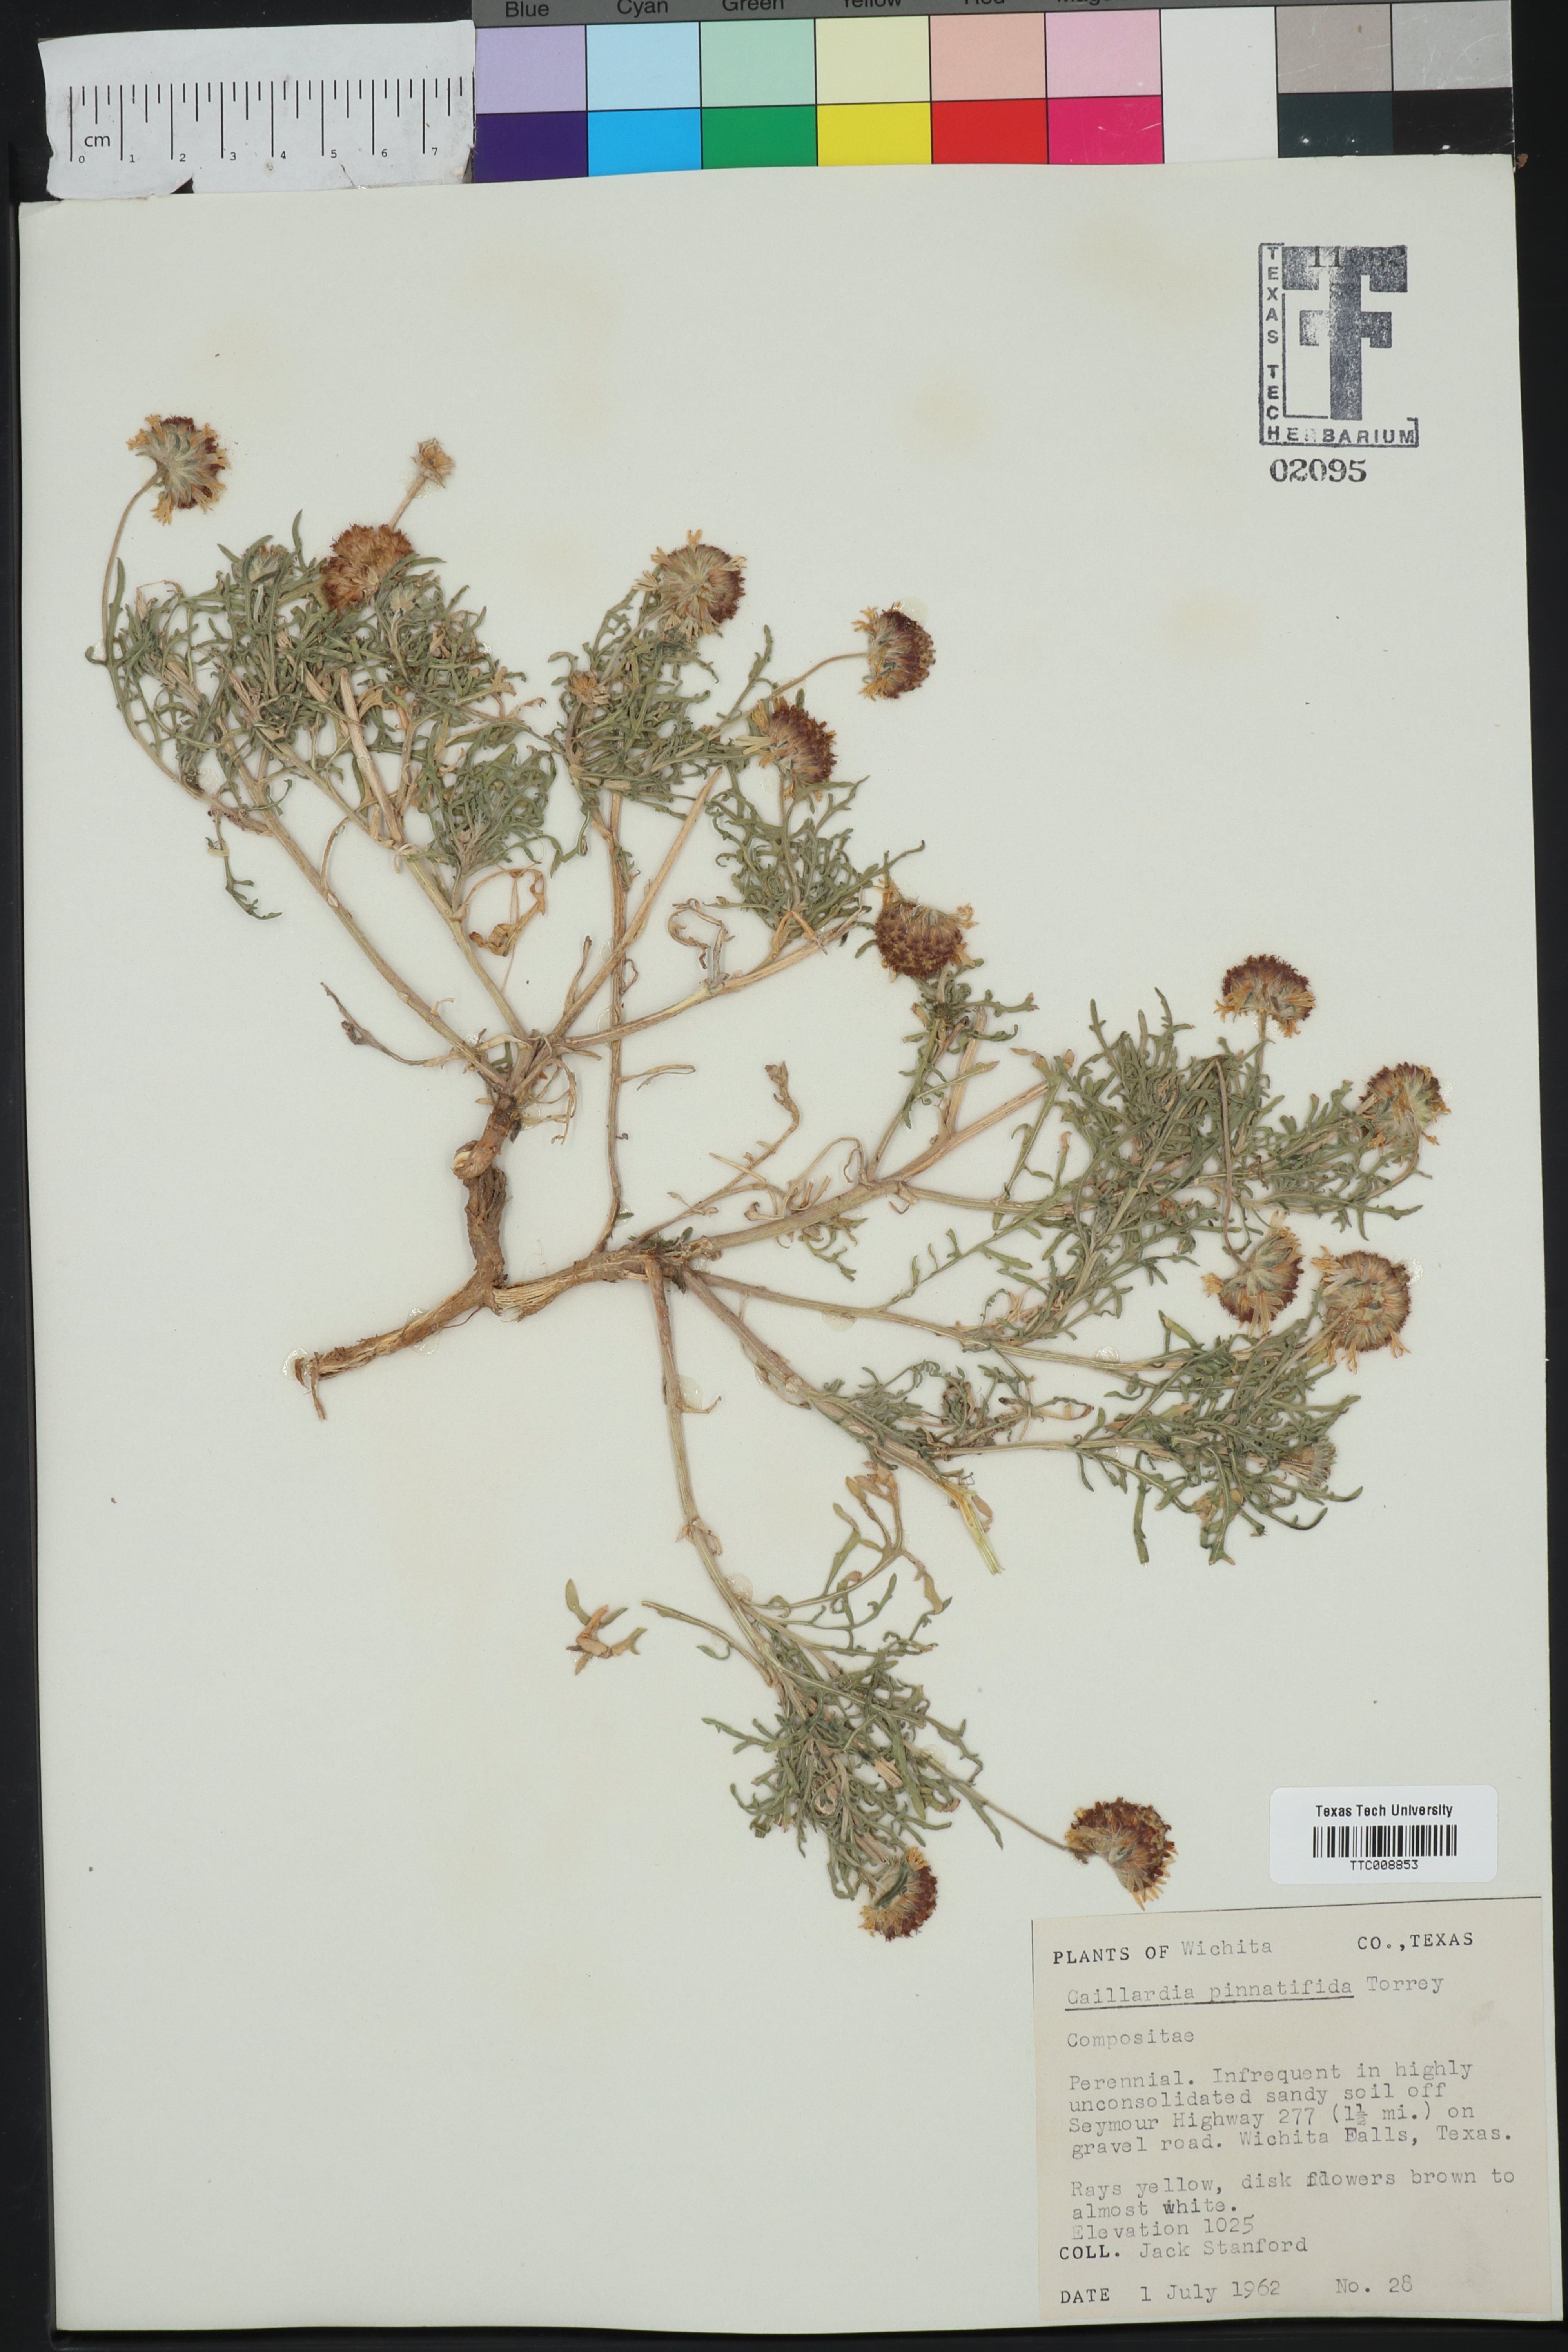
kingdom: Plantae
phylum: Tracheophyta
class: Magnoliopsida
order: Asterales
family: Asteraceae
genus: Gaillardia
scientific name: Gaillardia pinnatifida
